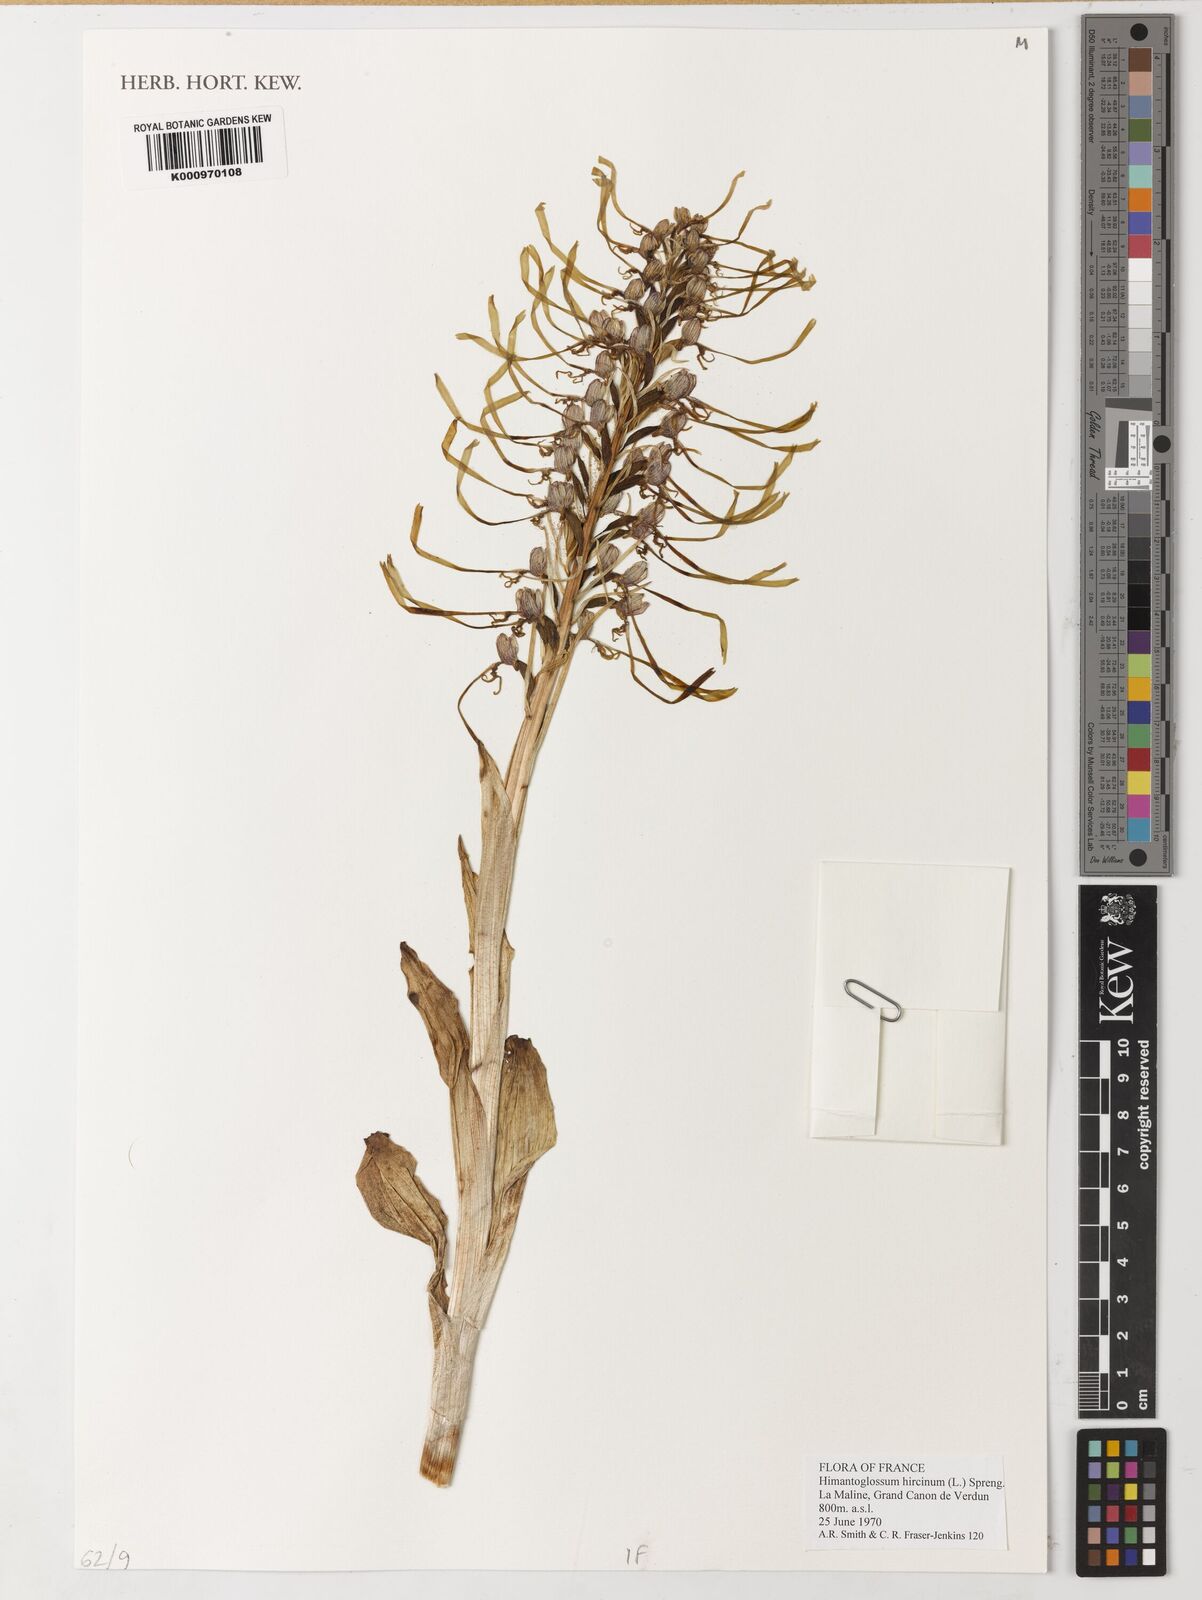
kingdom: Plantae
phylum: Tracheophyta
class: Liliopsida
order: Asparagales
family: Orchidaceae
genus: Himantoglossum
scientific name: Himantoglossum hircinum
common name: Lizard orchid
